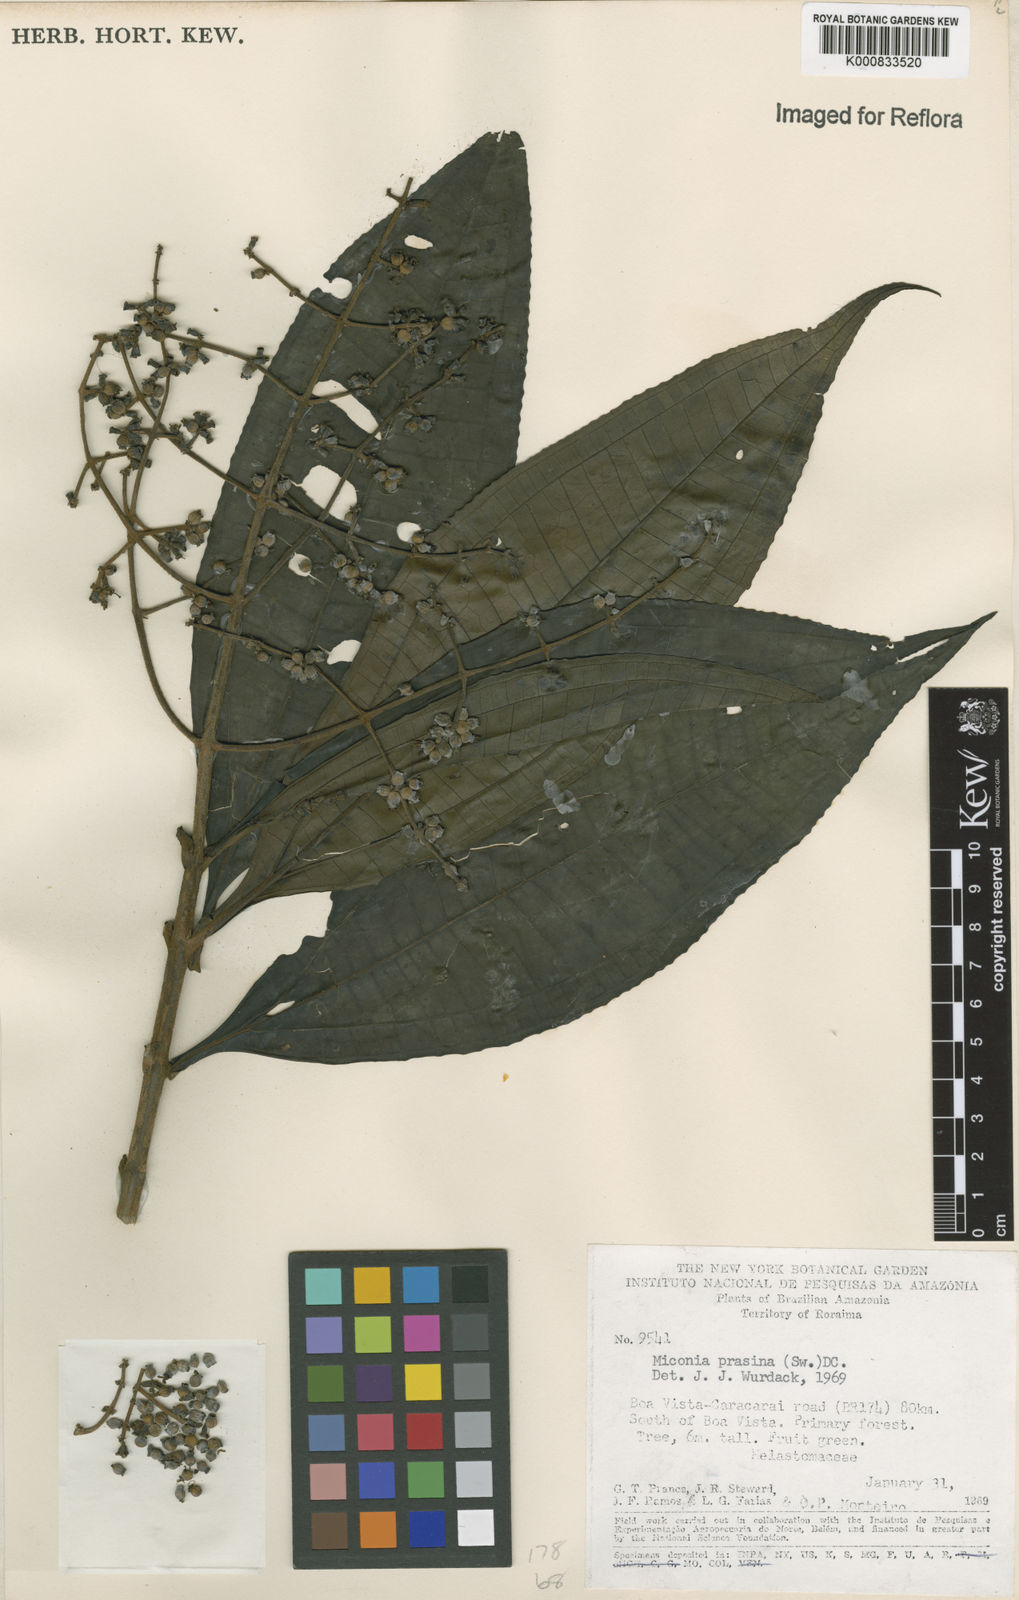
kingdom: Plantae
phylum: Tracheophyta
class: Magnoliopsida
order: Myrtales
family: Melastomataceae
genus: Miconia
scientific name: Miconia prasina
